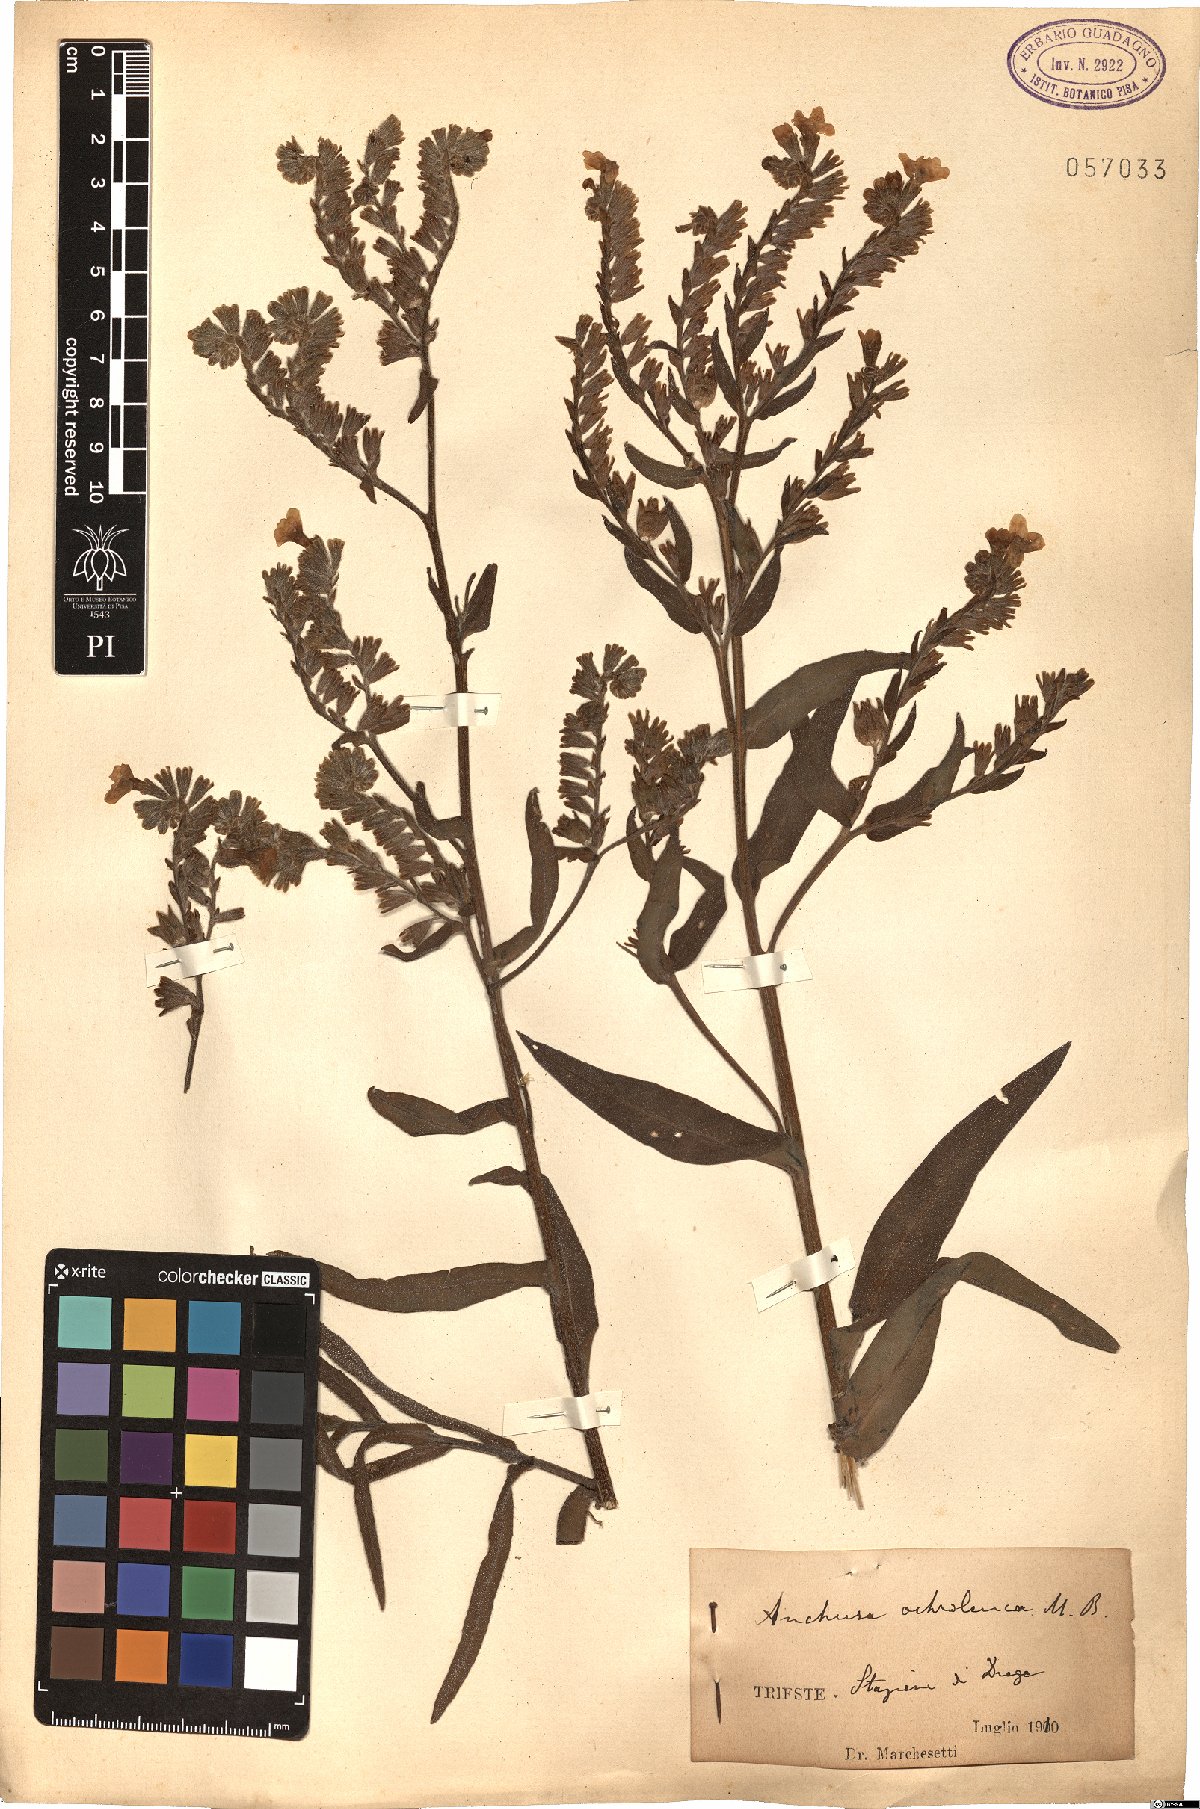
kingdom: Plantae
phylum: Tracheophyta
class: Magnoliopsida
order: Boraginales
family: Boraginaceae
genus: Anchusa
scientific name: Anchusa ochroleuca
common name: Yellow alkanet
